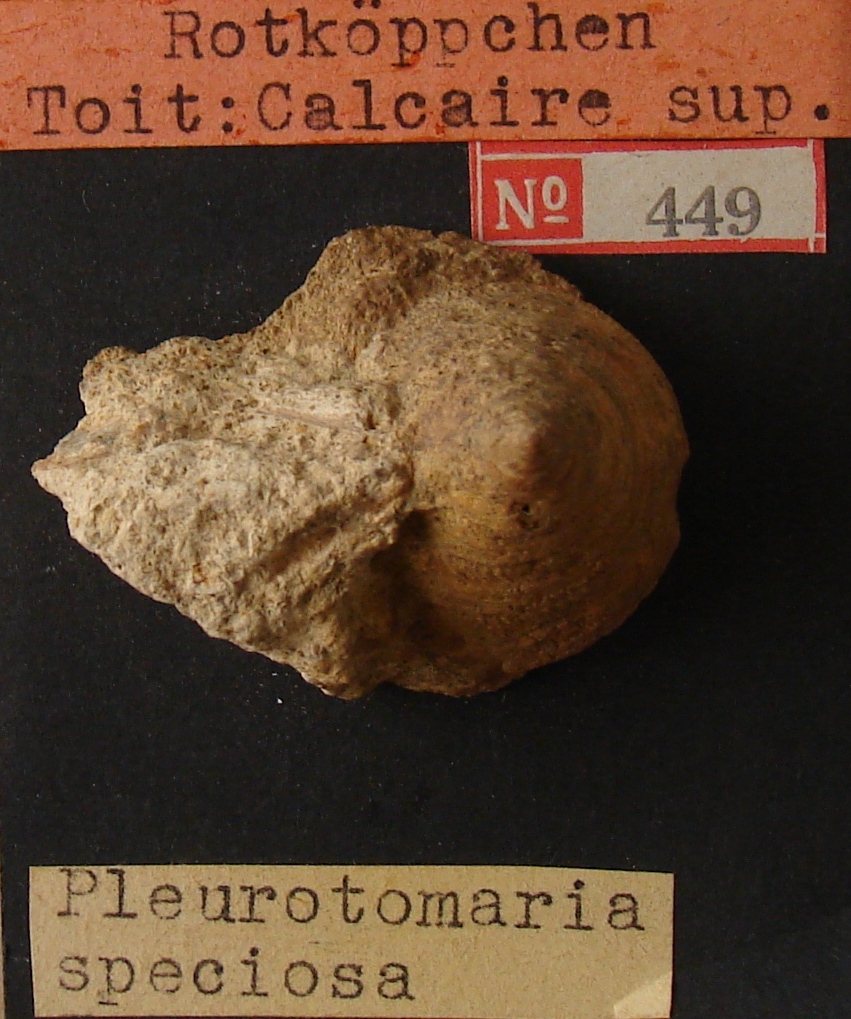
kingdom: Animalia
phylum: Mollusca
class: Gastropoda
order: Pleurotomariida
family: Pleurotomariidae
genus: Pyrgotrochus
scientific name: Pyrgotrochus elongatus
